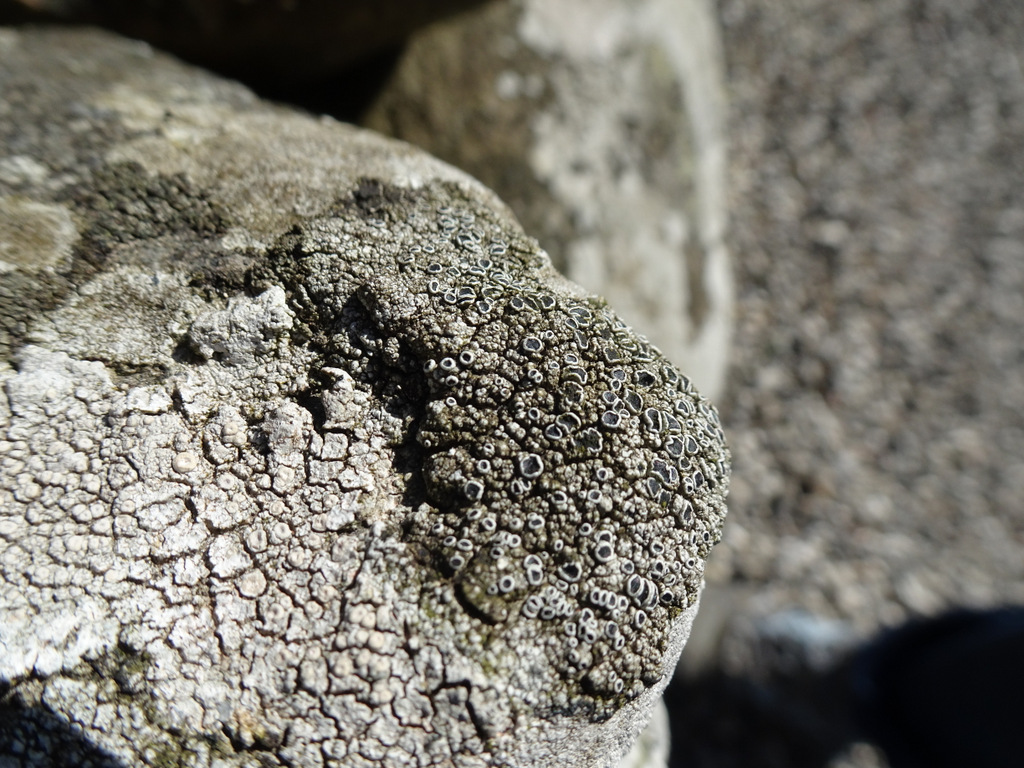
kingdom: Fungi
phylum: Ascomycota
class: Lecanoromycetes
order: Lecanorales
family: Tephromelataceae
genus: Tephromela
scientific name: Tephromela atra
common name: sortfrugtet kantskivelav
